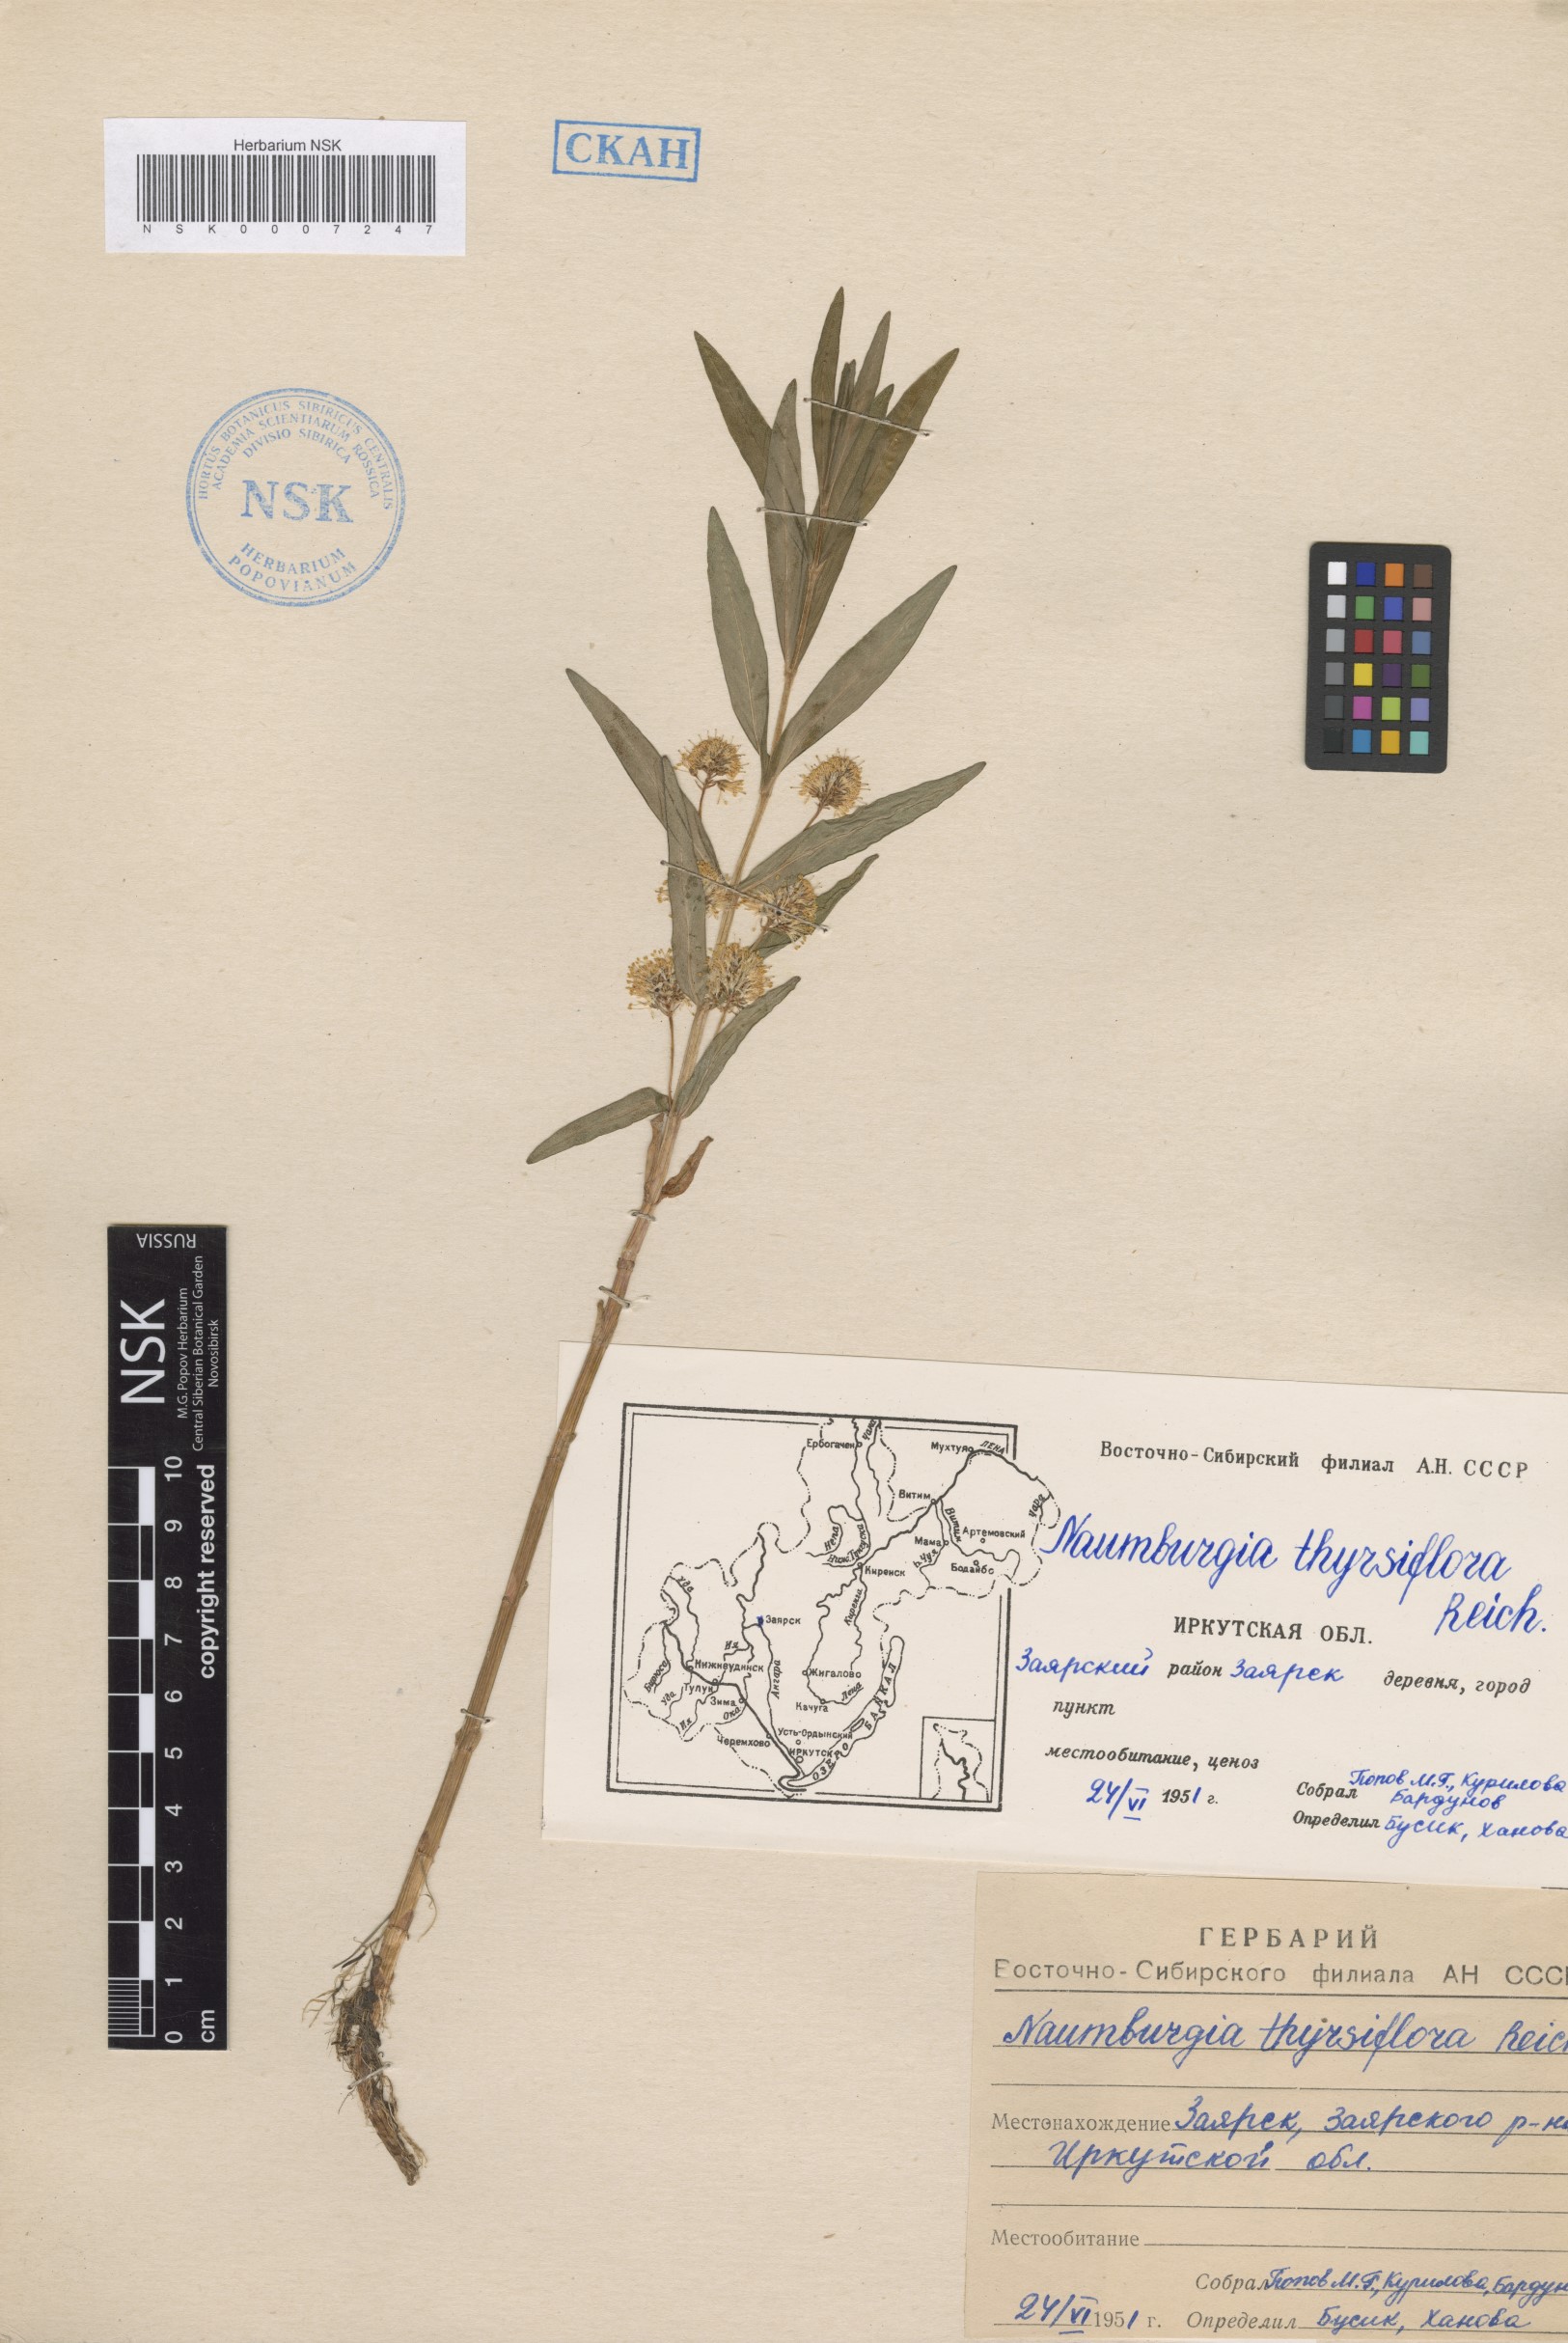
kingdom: Plantae
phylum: Tracheophyta
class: Magnoliopsida
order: Ericales
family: Primulaceae
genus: Lysimachia
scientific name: Lysimachia thyrsiflora
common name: Tufted loosestrife
